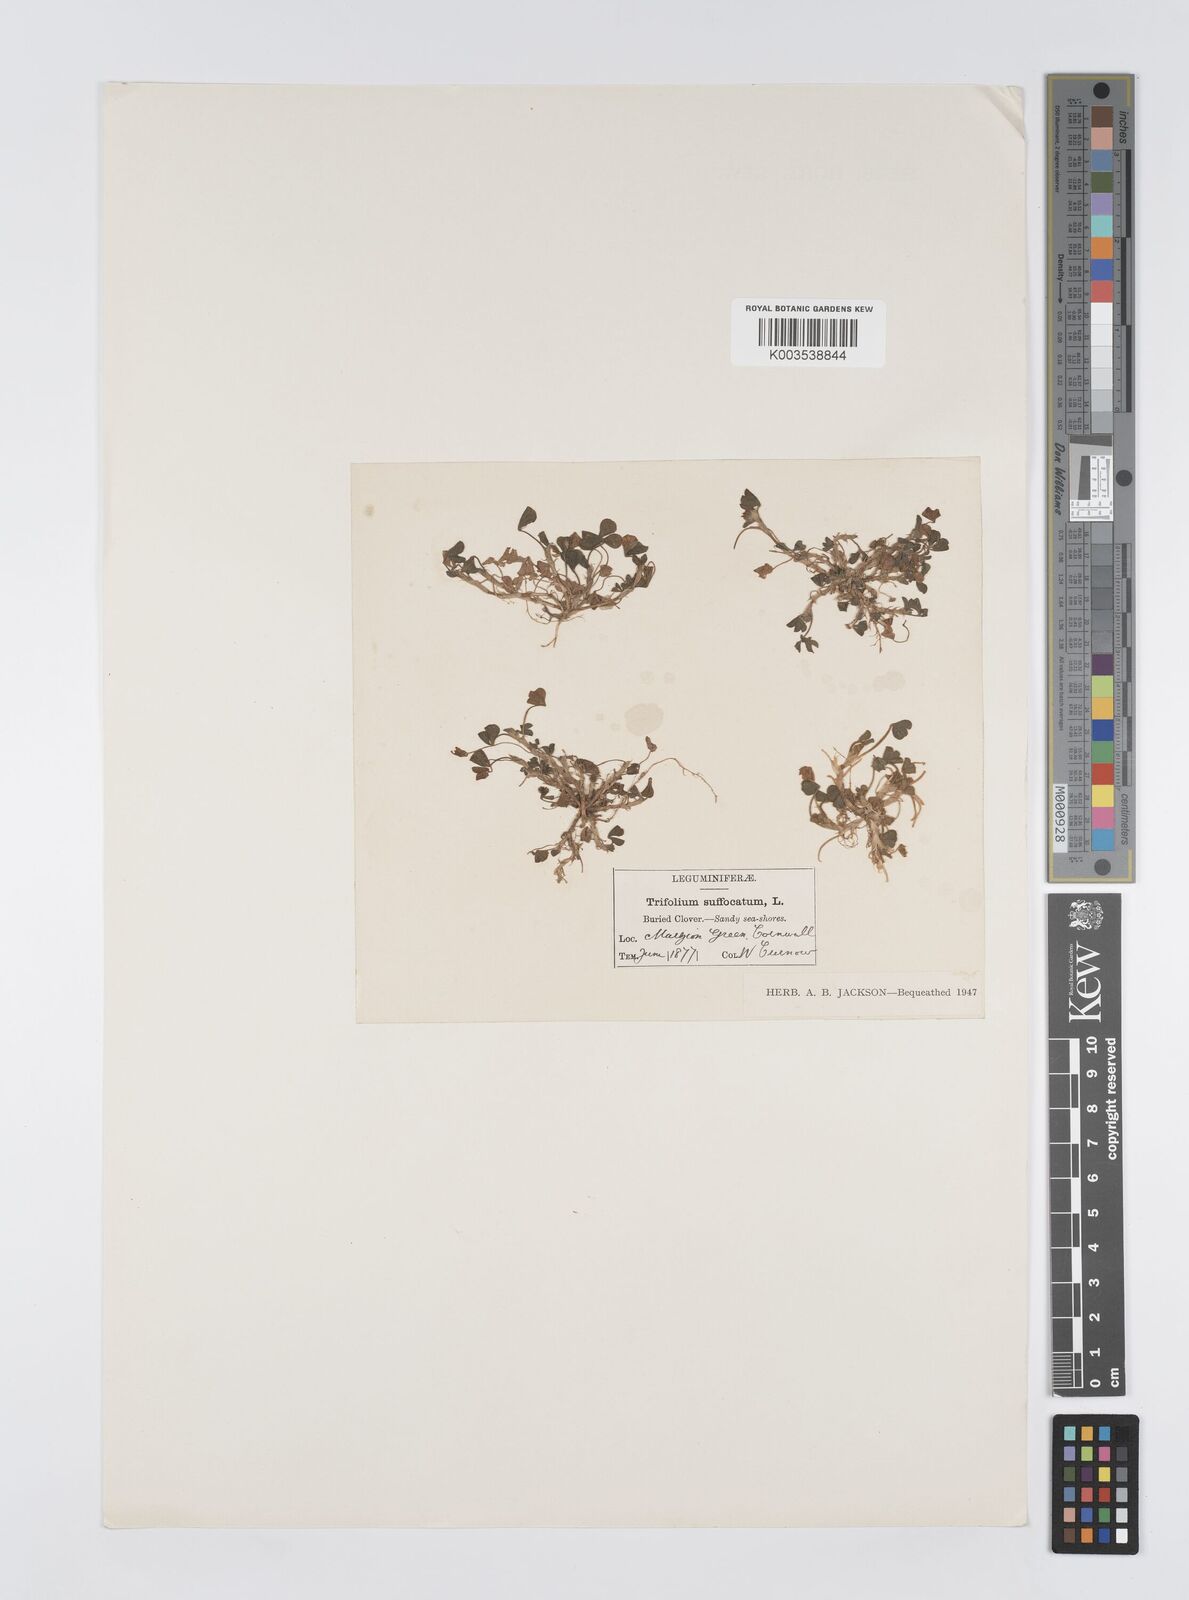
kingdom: Plantae
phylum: Tracheophyta
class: Magnoliopsida
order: Fabales
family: Fabaceae
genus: Trifolium
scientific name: Trifolium suffocatum
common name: Suffocated clover
